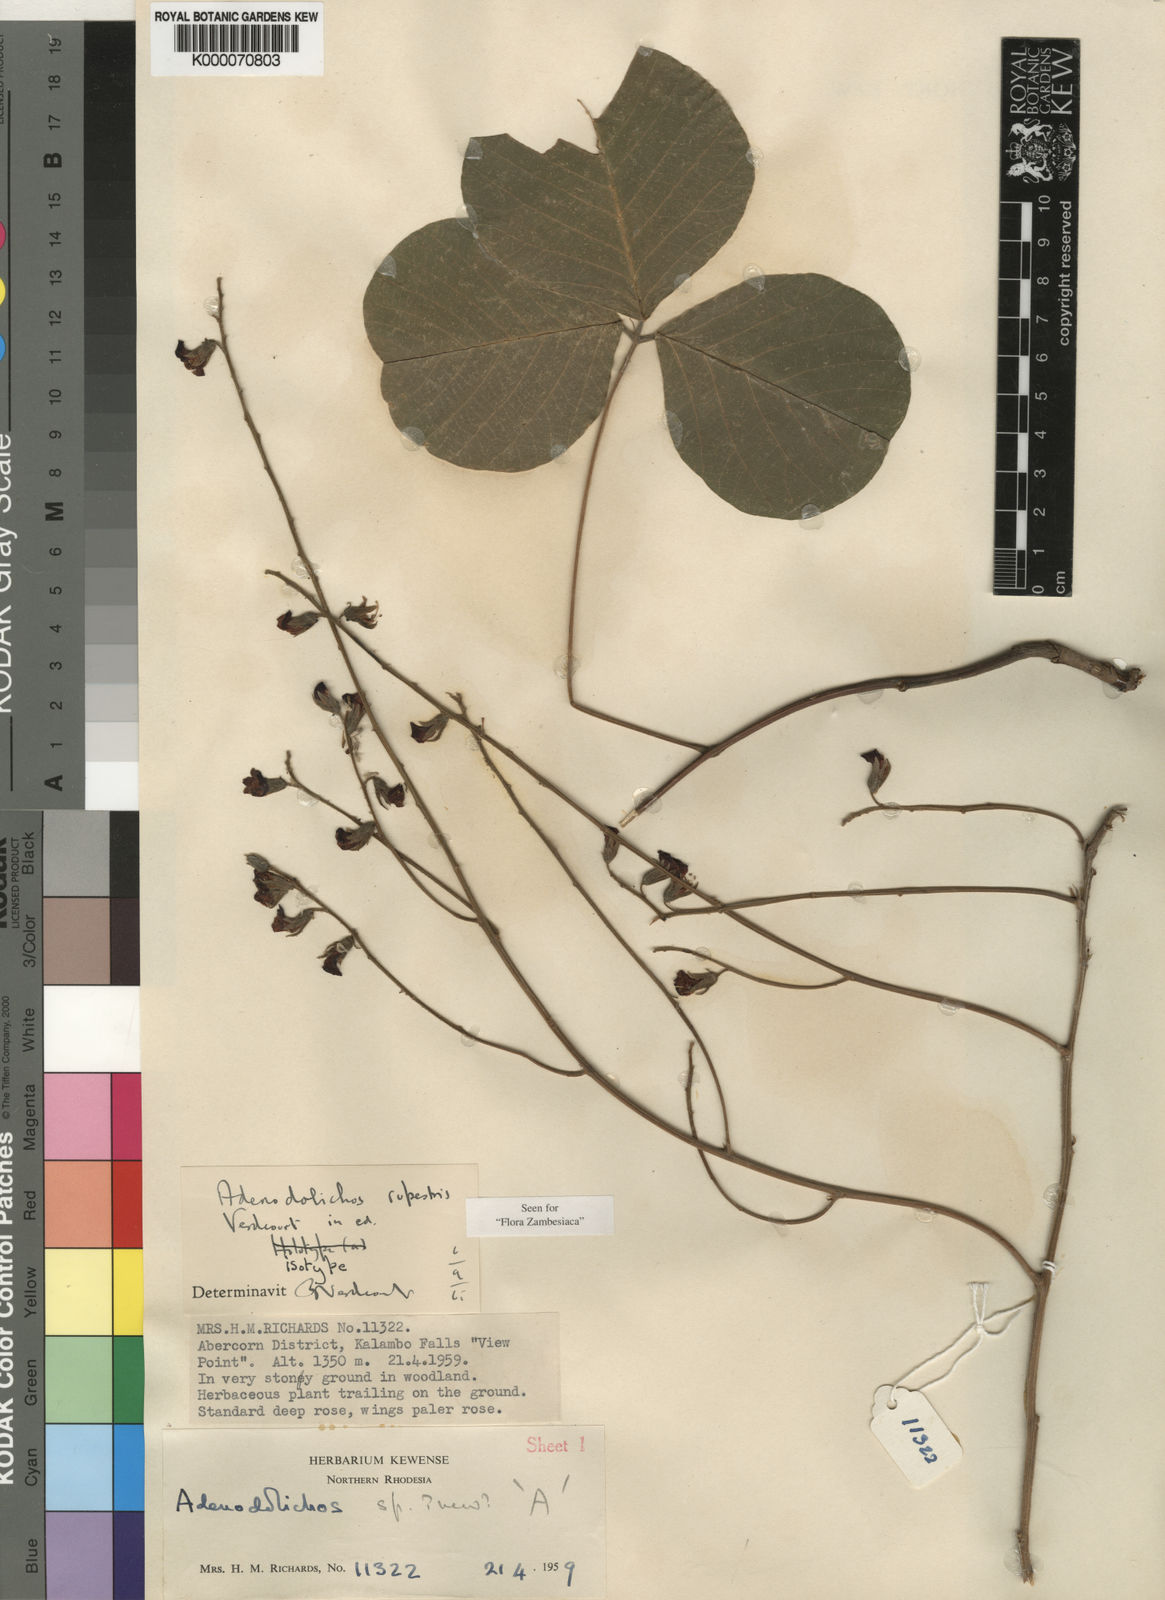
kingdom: Plantae
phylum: Tracheophyta
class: Magnoliopsida
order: Fabales
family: Fabaceae
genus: Adenodolichos
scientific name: Adenodolichos rupestris
